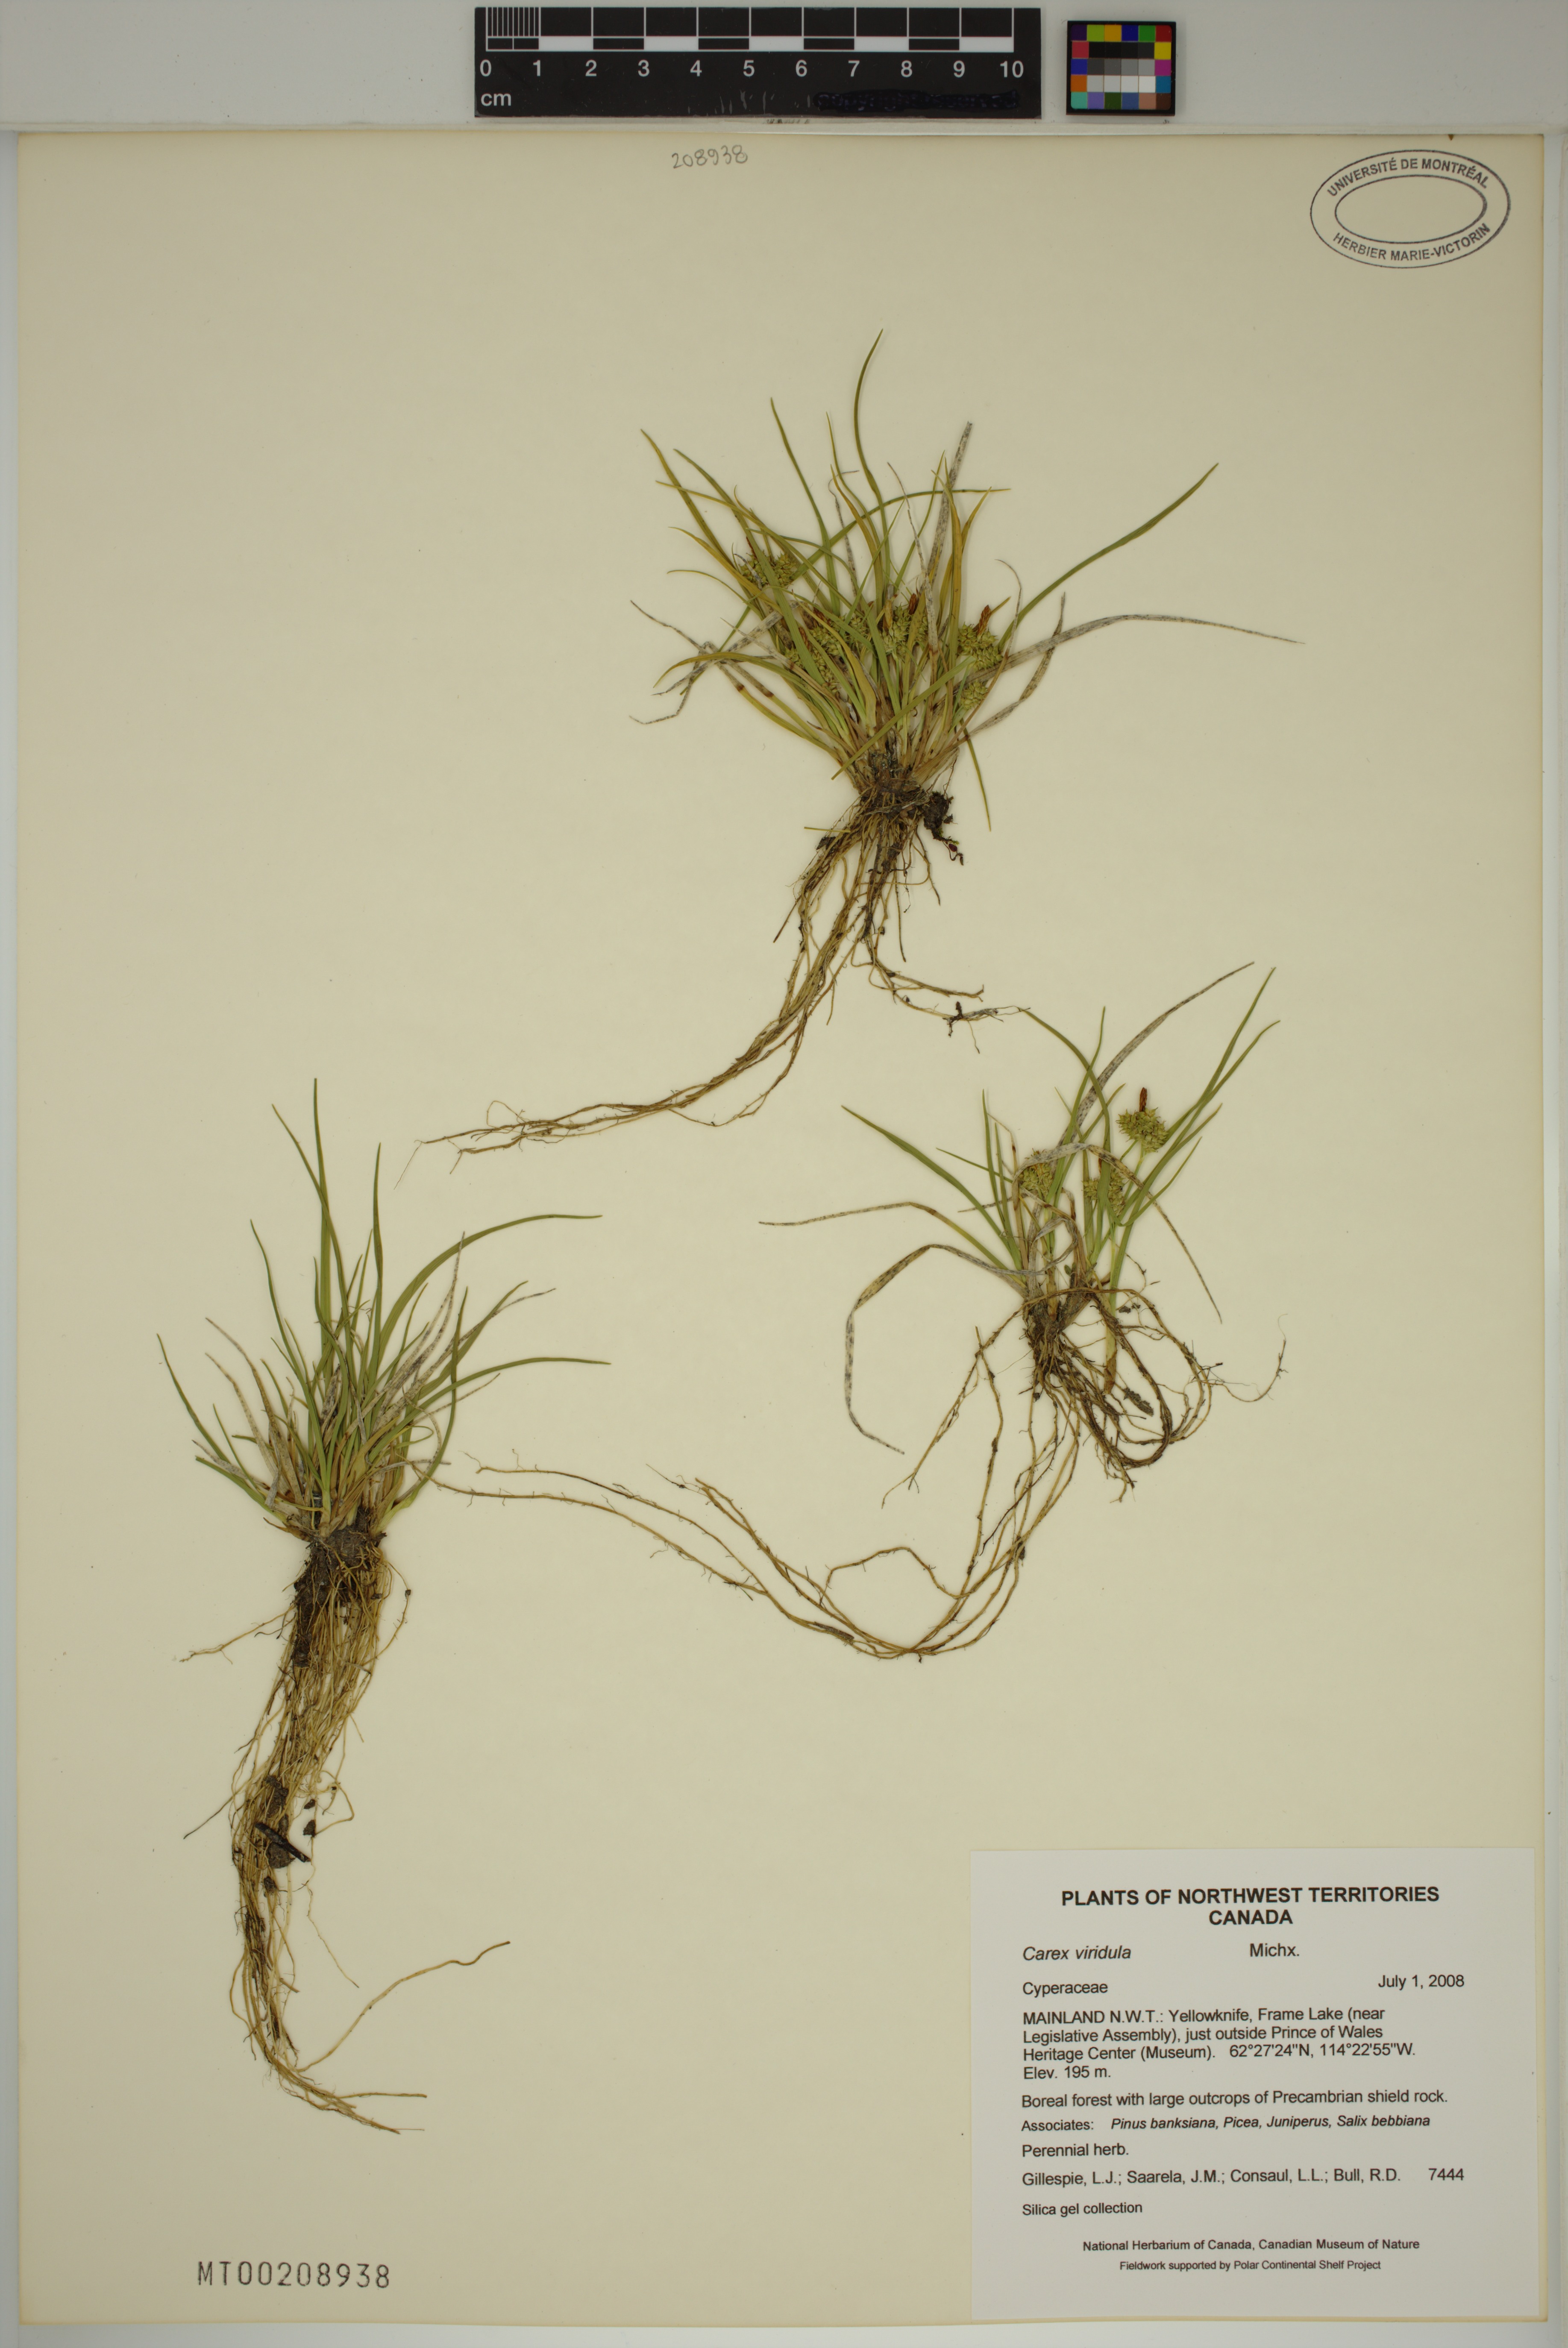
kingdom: Plantae
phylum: Tracheophyta
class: Liliopsida
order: Poales
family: Cyperaceae
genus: Carex
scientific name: Carex oederi
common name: Common & small-fruited yellow-sedge
